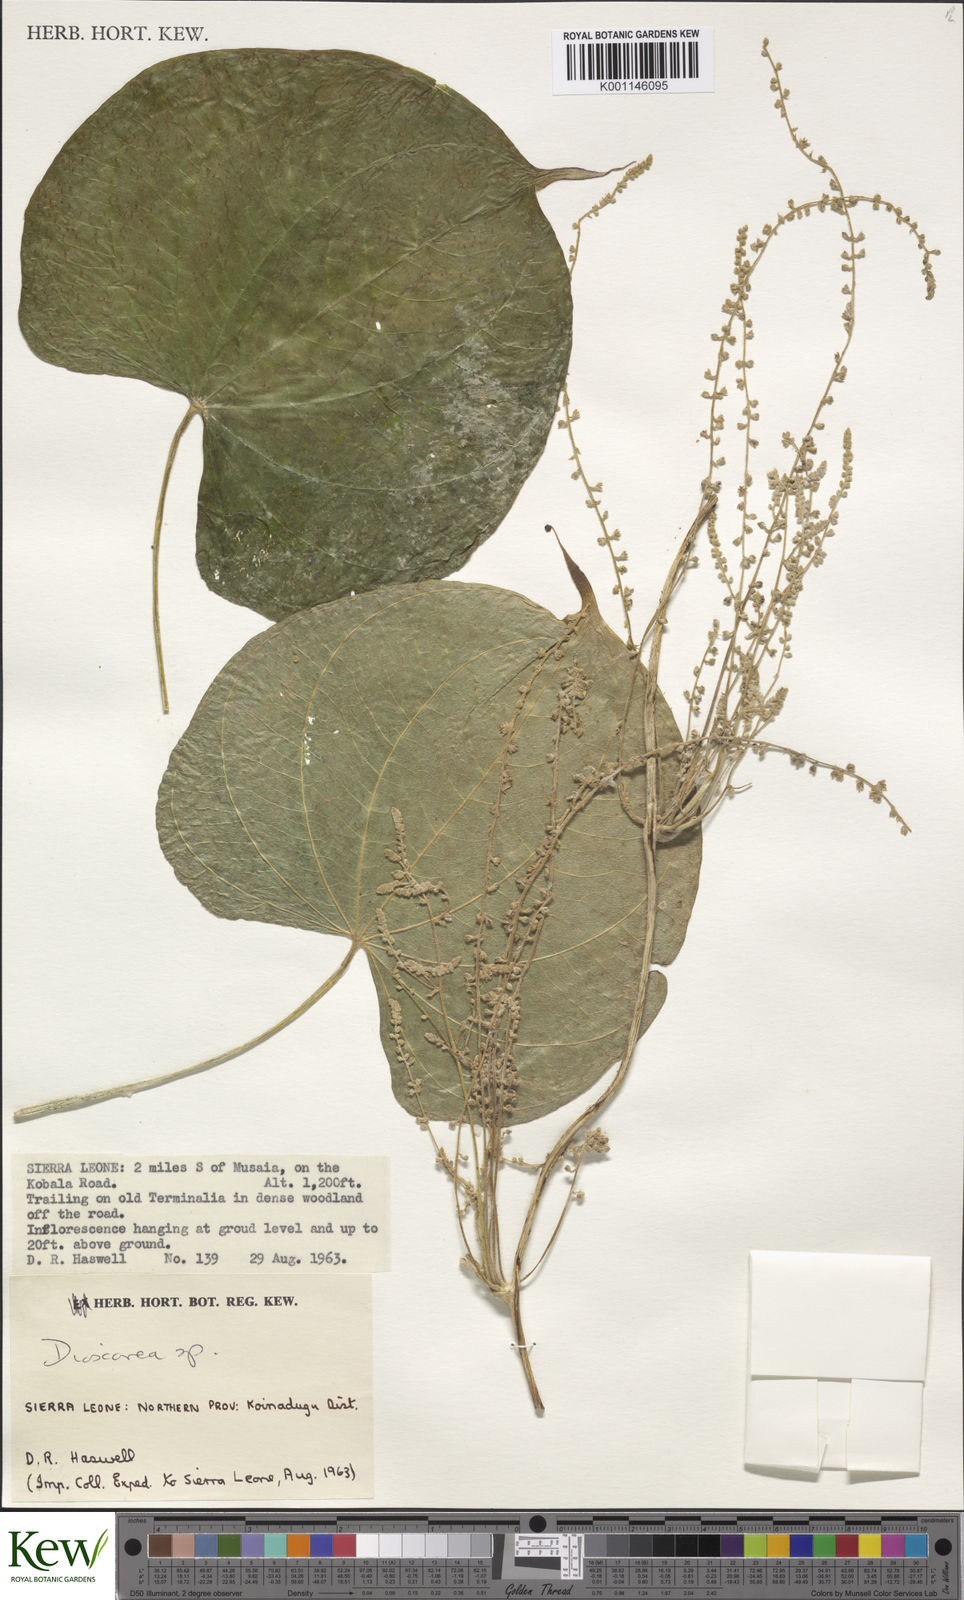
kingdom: Plantae
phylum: Tracheophyta
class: Liliopsida
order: Dioscoreales
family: Dioscoreaceae
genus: Dioscorea
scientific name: Dioscorea
